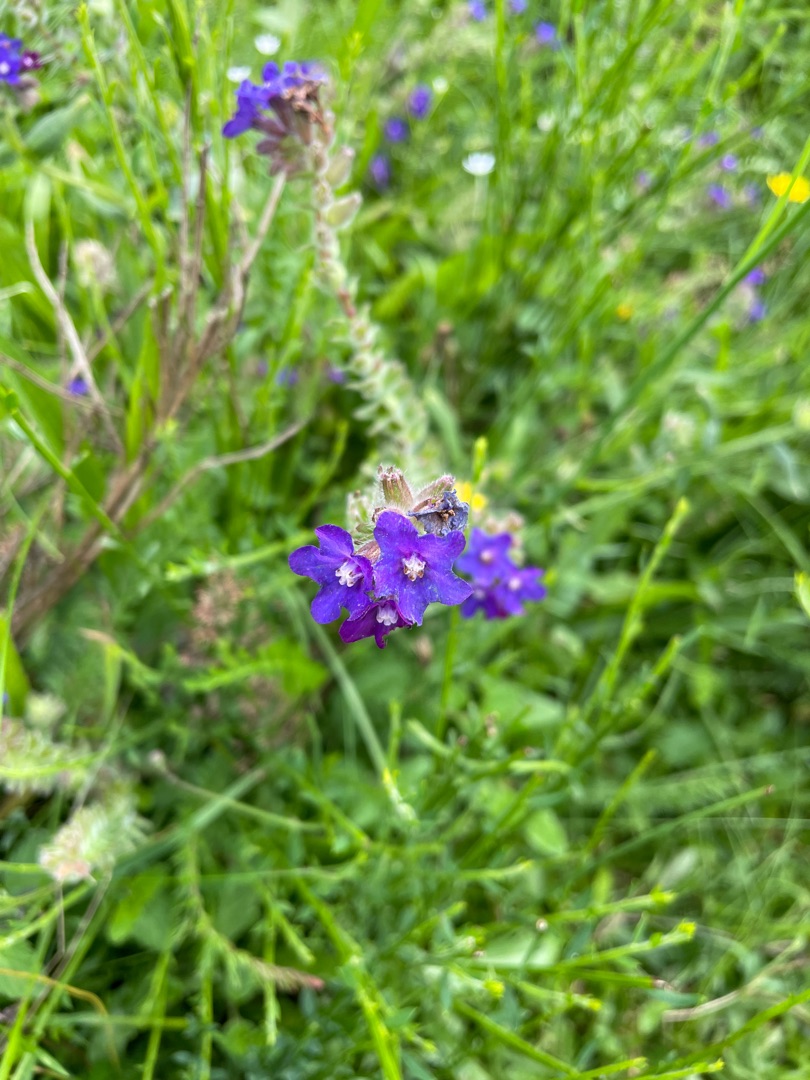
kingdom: Plantae
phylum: Tracheophyta
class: Magnoliopsida
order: Boraginales
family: Boraginaceae
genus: Anchusa
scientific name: Anchusa officinalis
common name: Læge-oksetunge
